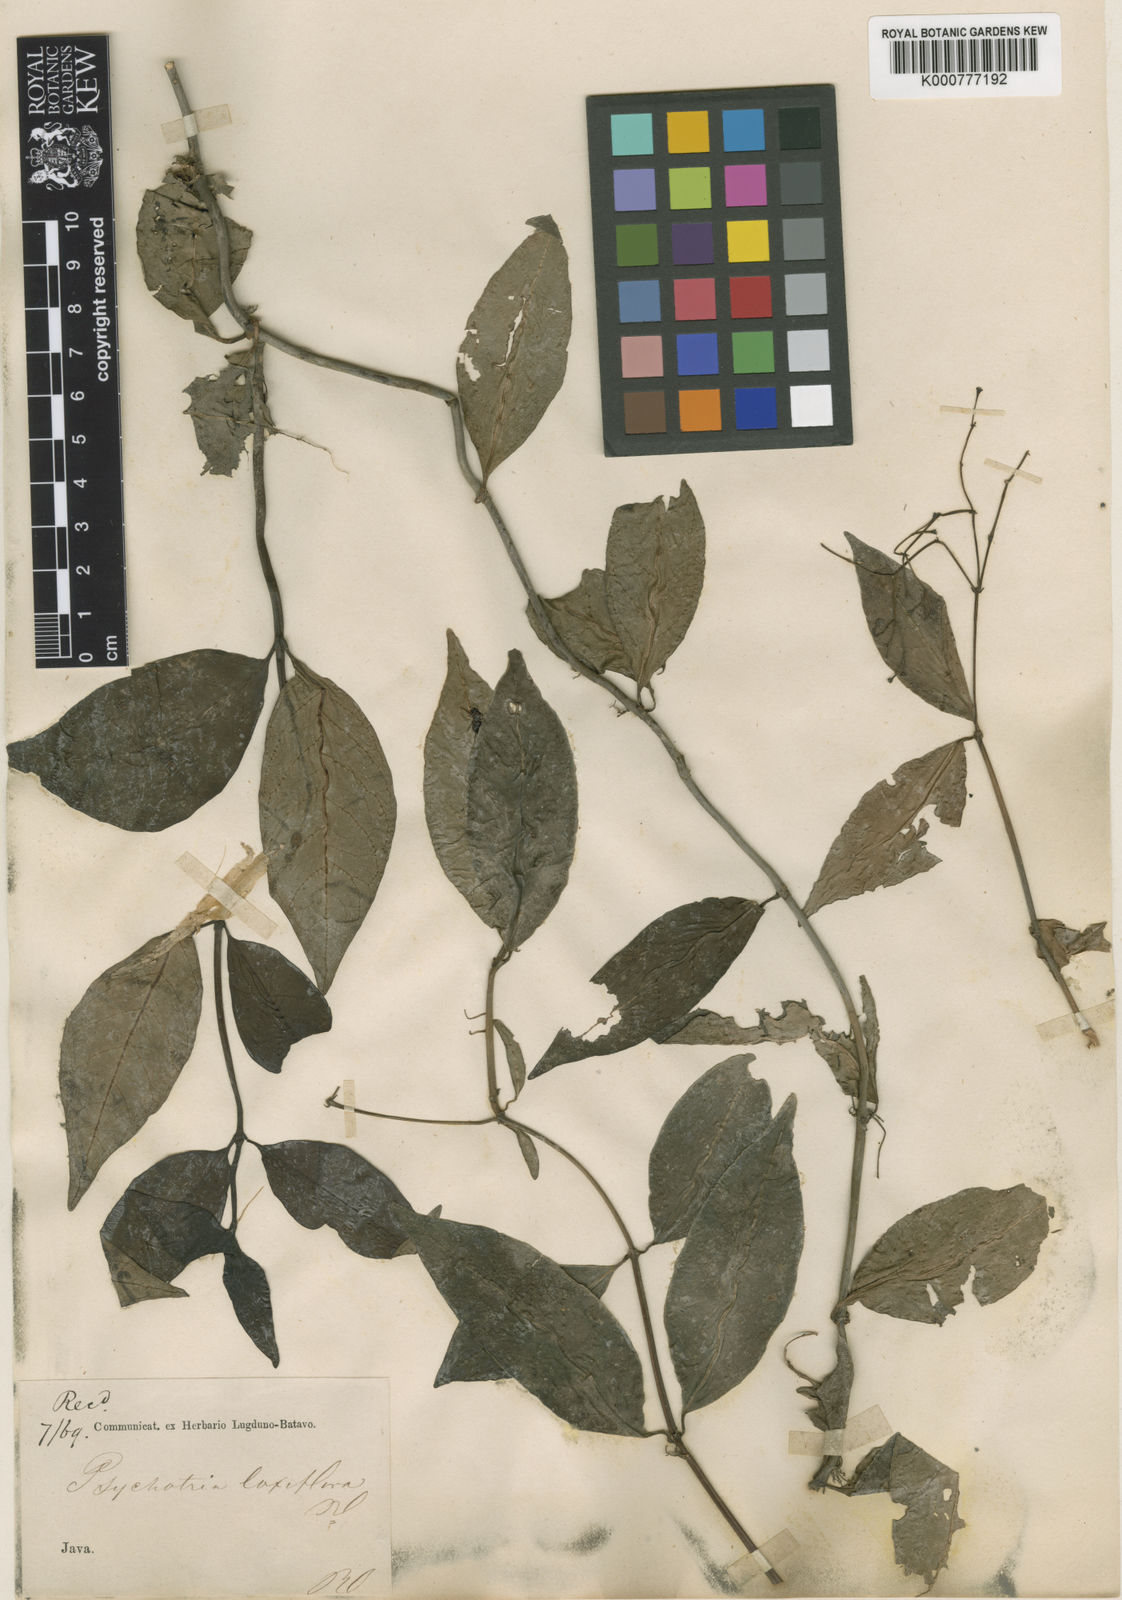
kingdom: Plantae
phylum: Tracheophyta
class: Magnoliopsida
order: Gentianales
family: Rubiaceae
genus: Psychotria
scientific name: Psychotria laxiflora
